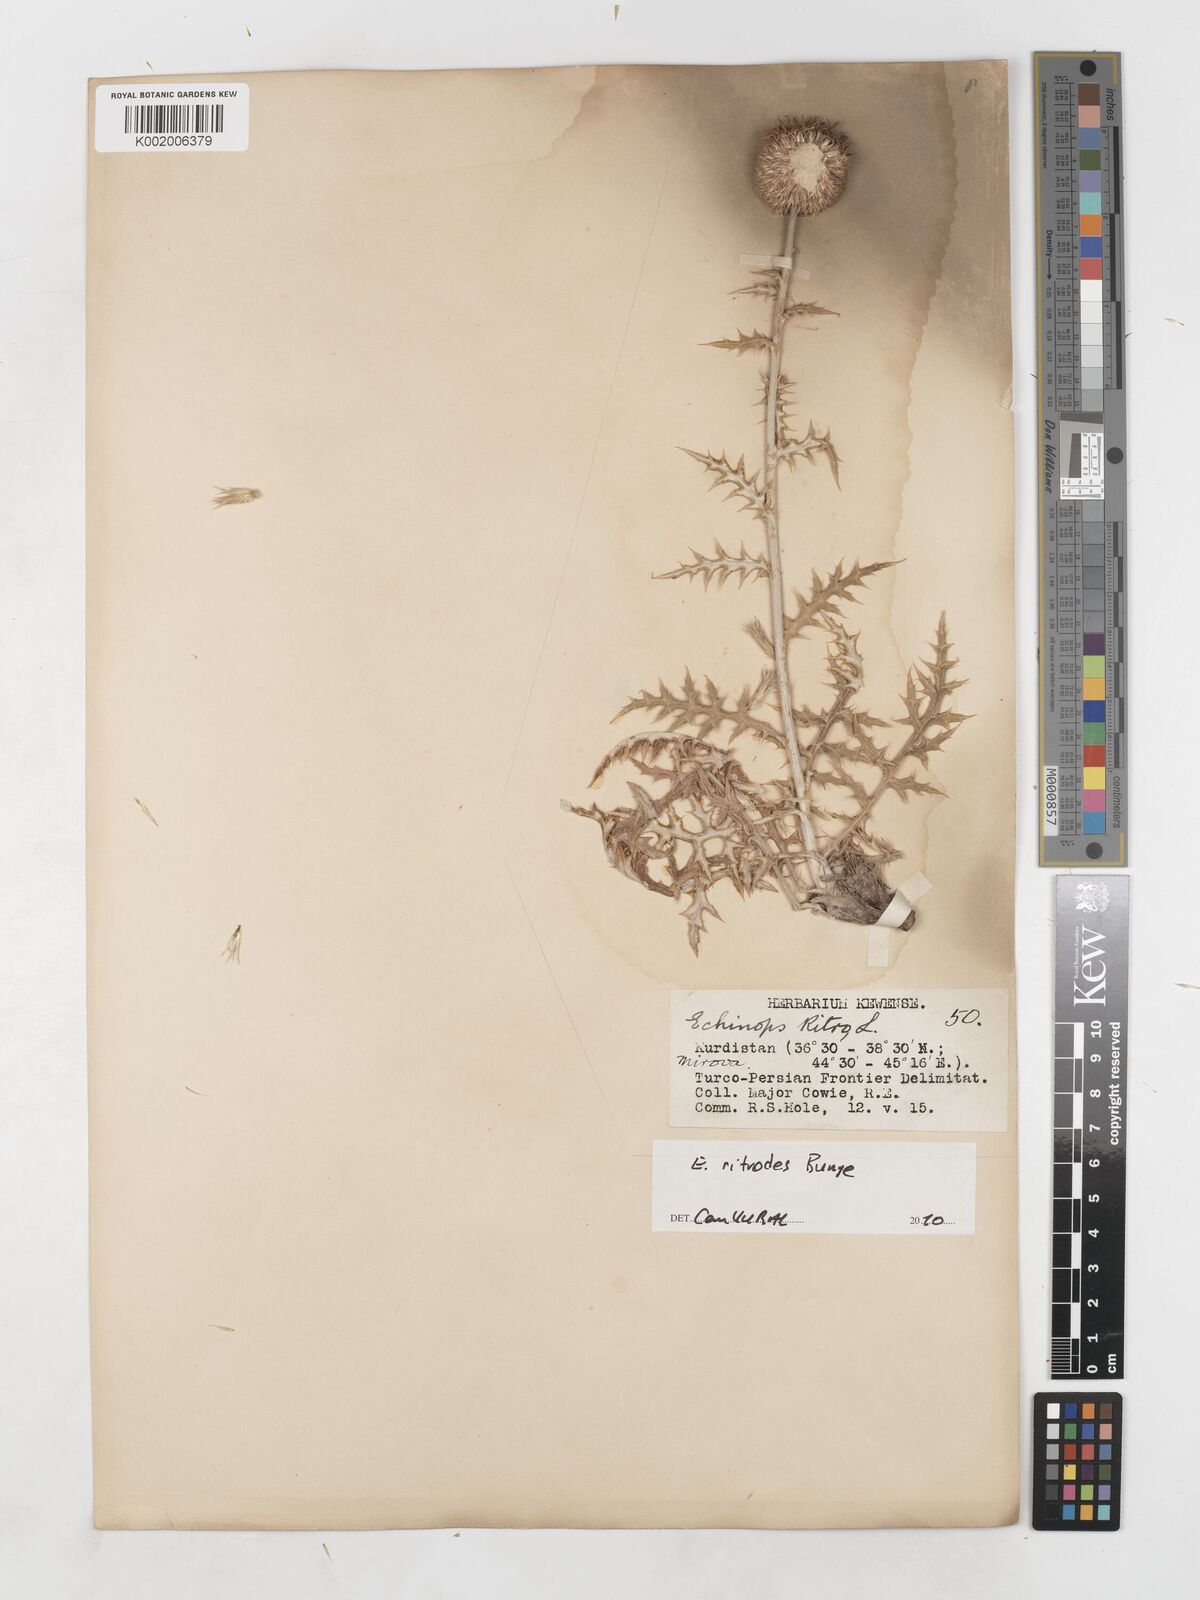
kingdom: Plantae
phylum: Tracheophyta
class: Magnoliopsida
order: Asterales
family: Asteraceae
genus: Echinops
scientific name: Echinops ritrodes
